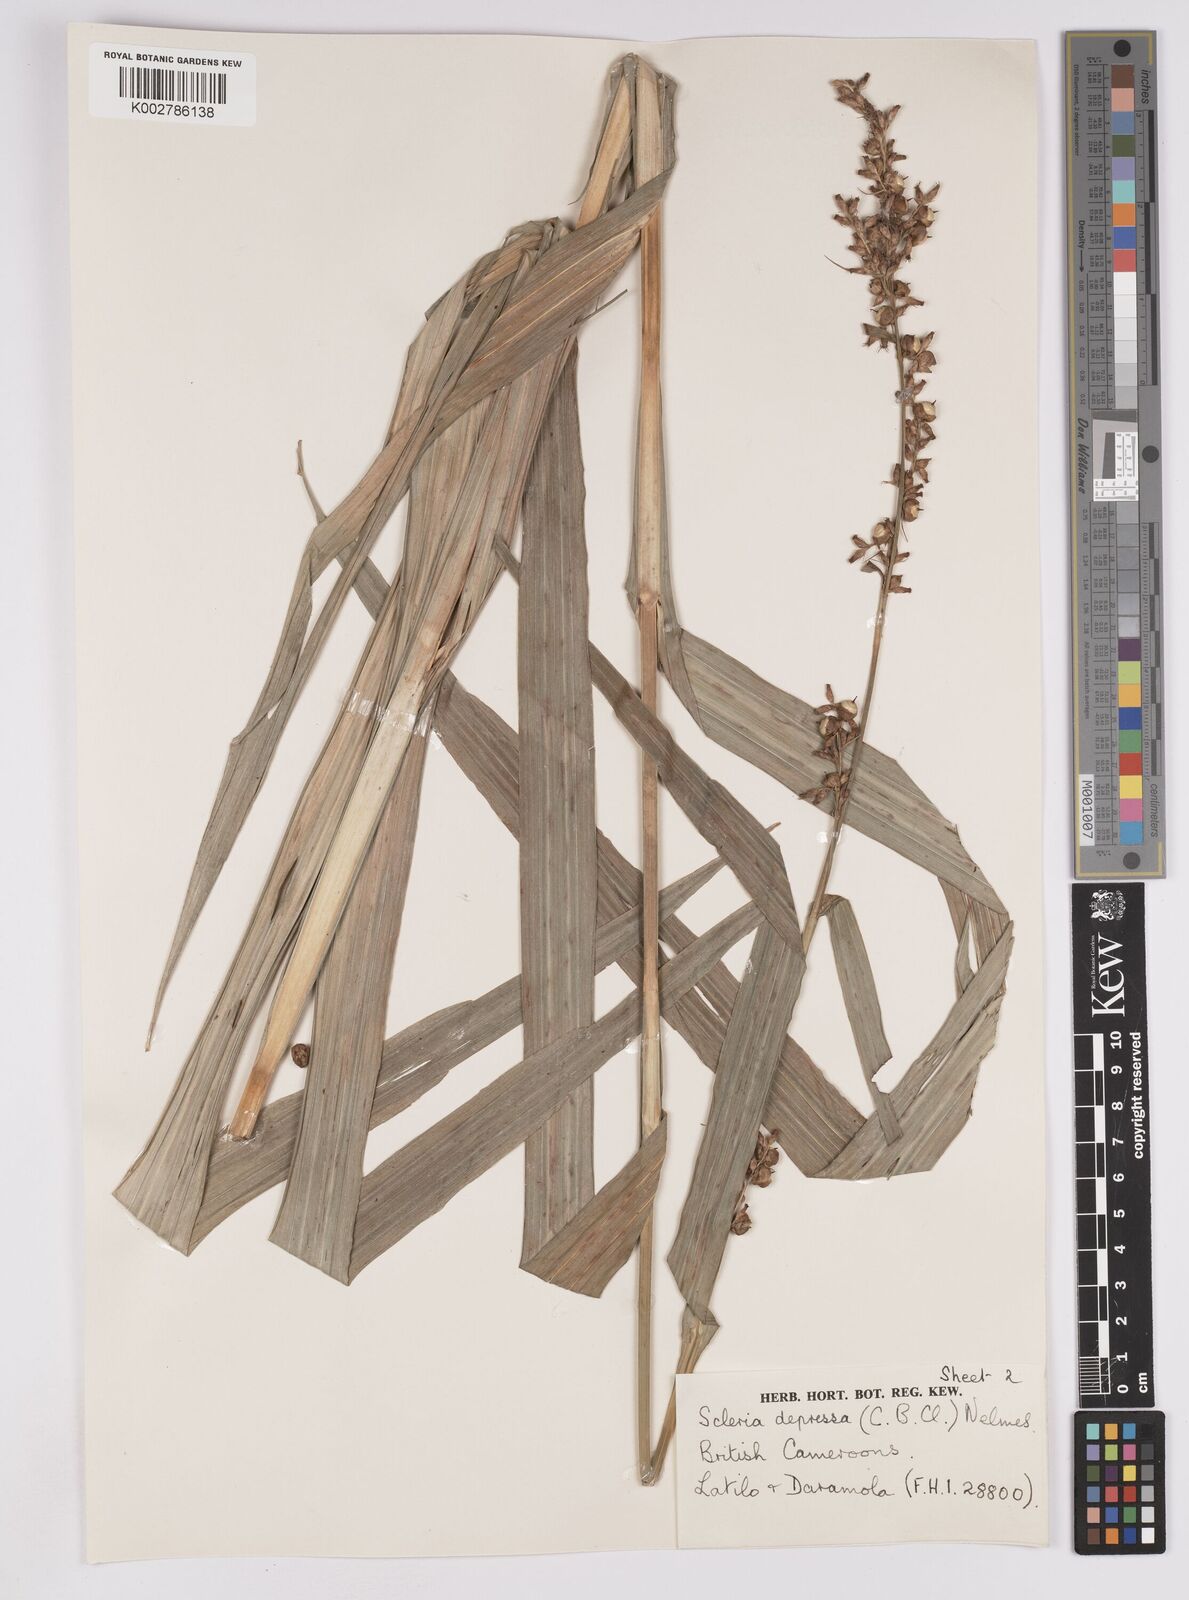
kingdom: Plantae
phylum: Tracheophyta
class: Liliopsida
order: Poales
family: Cyperaceae
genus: Scleria
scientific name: Scleria depressa
